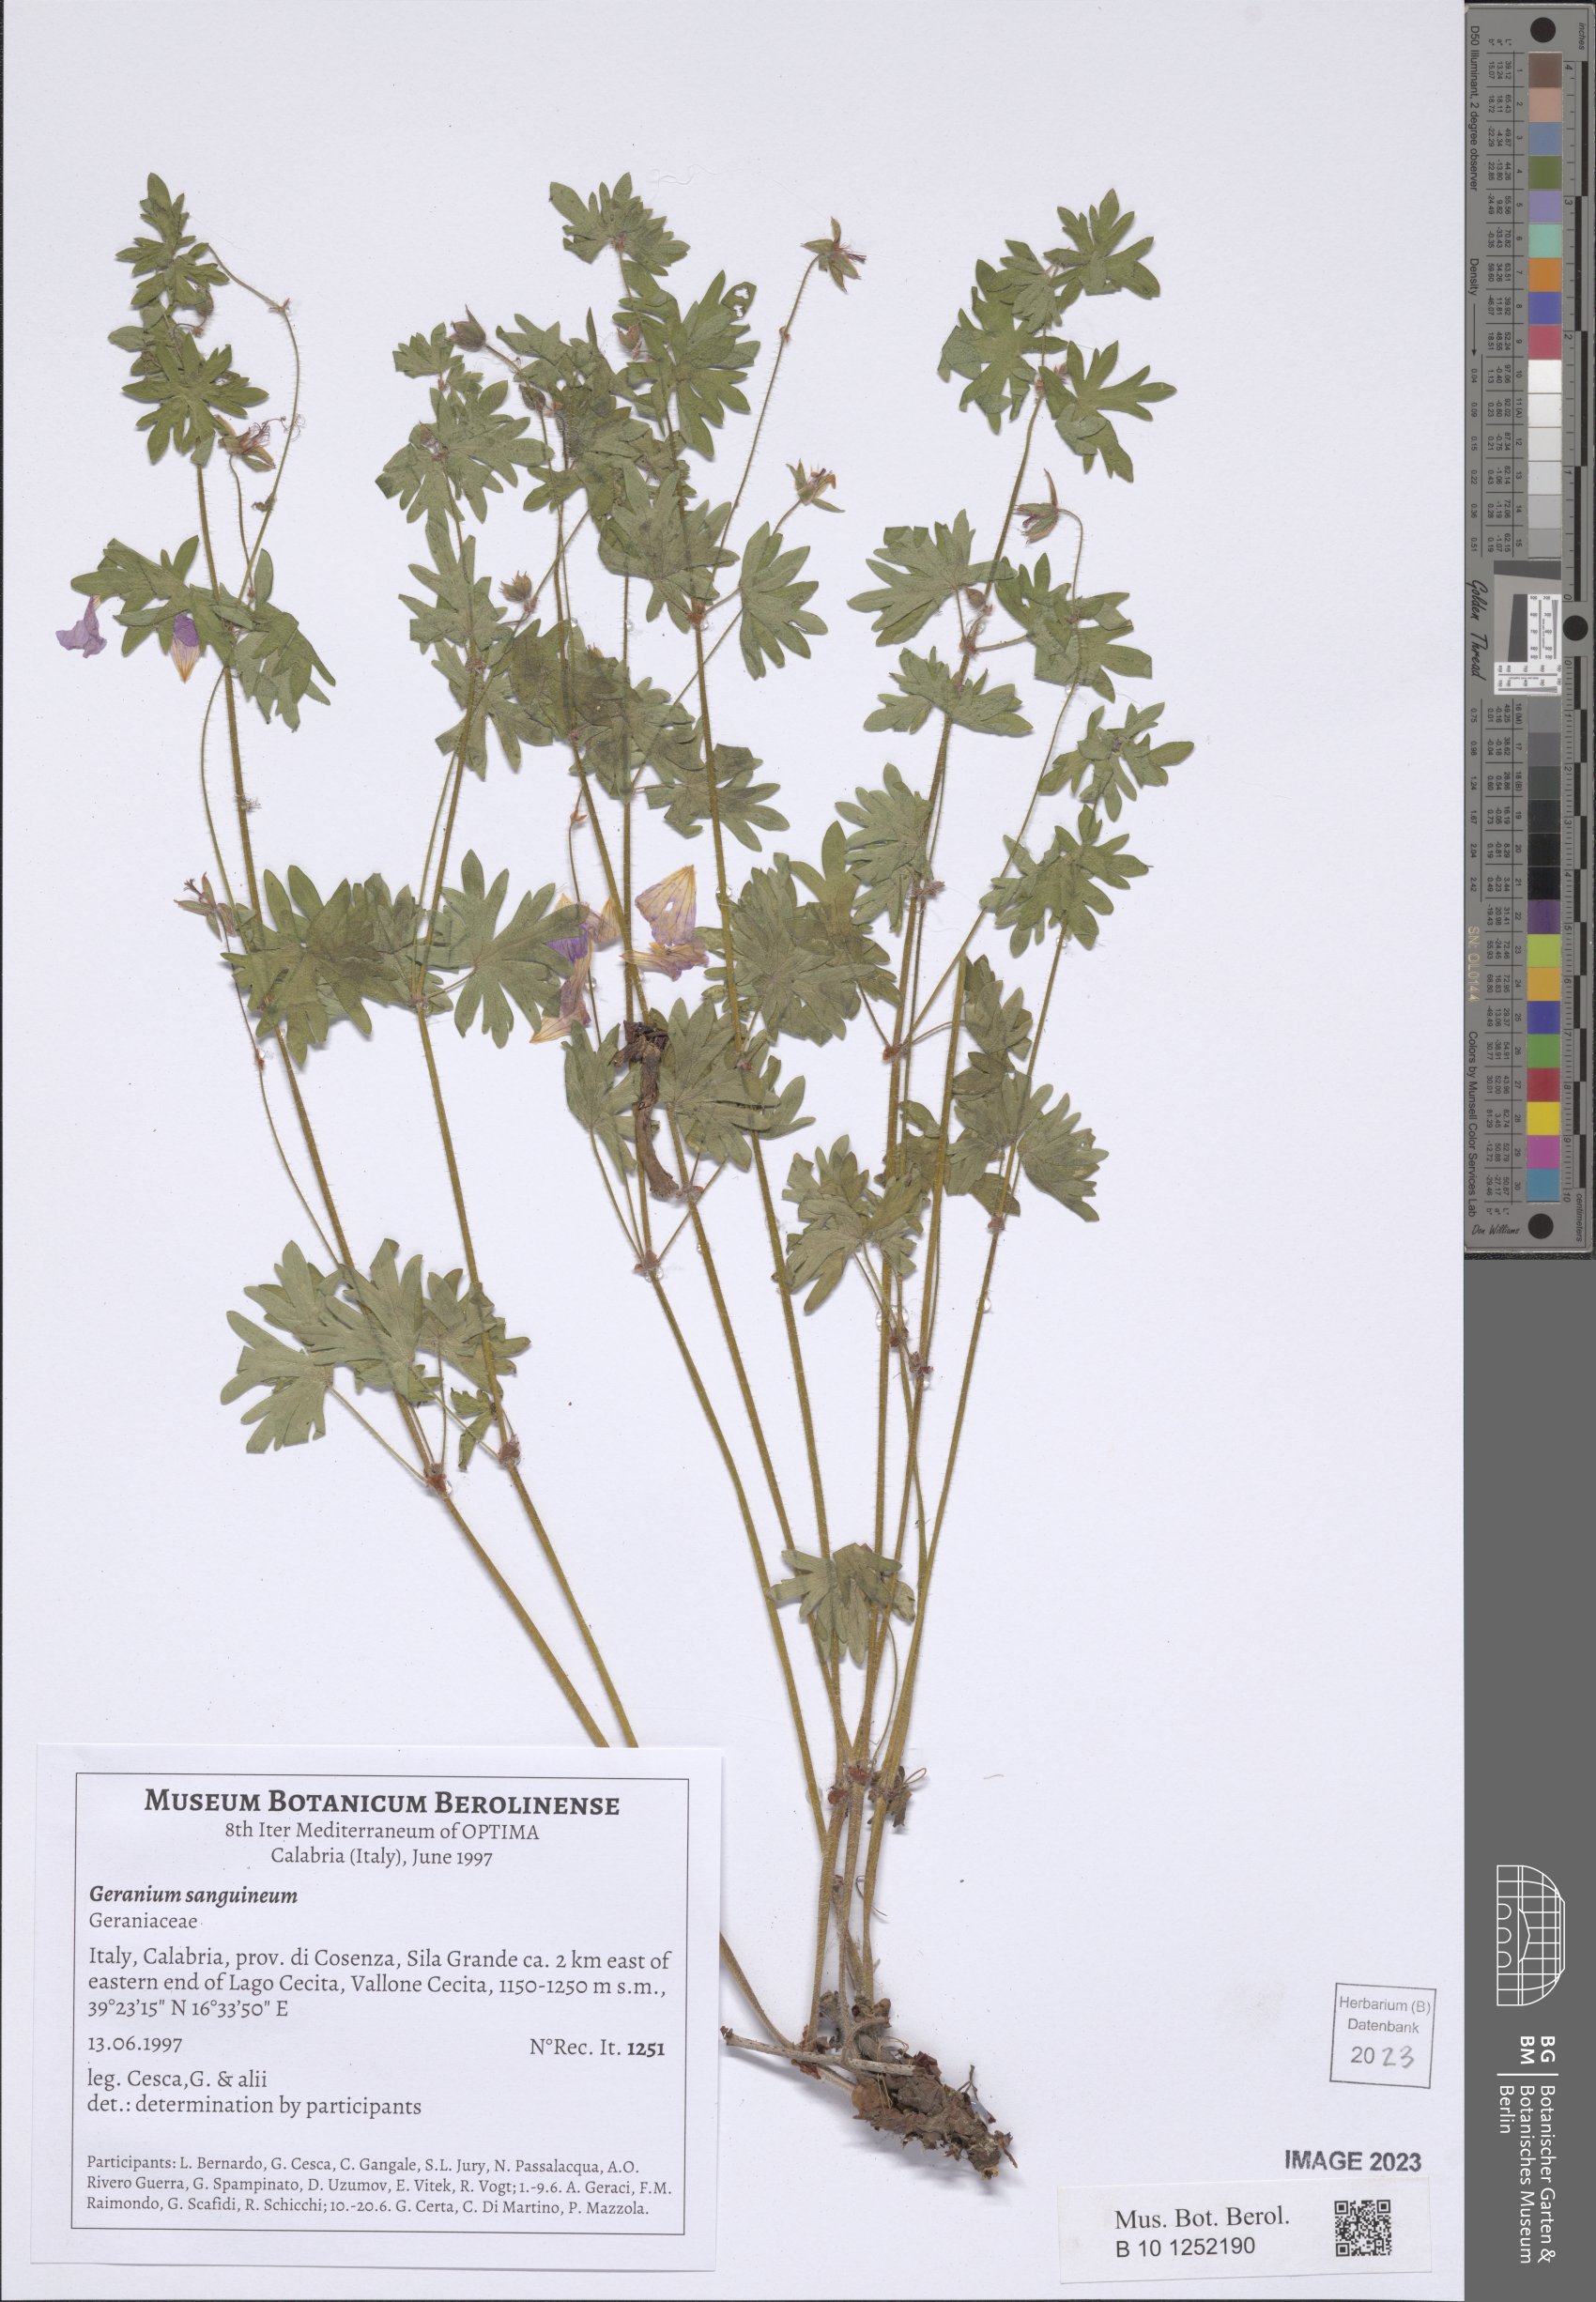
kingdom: Plantae
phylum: Tracheophyta
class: Magnoliopsida
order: Geraniales
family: Geraniaceae
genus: Geranium
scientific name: Geranium sanguineum
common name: Bloody crane's-bill
